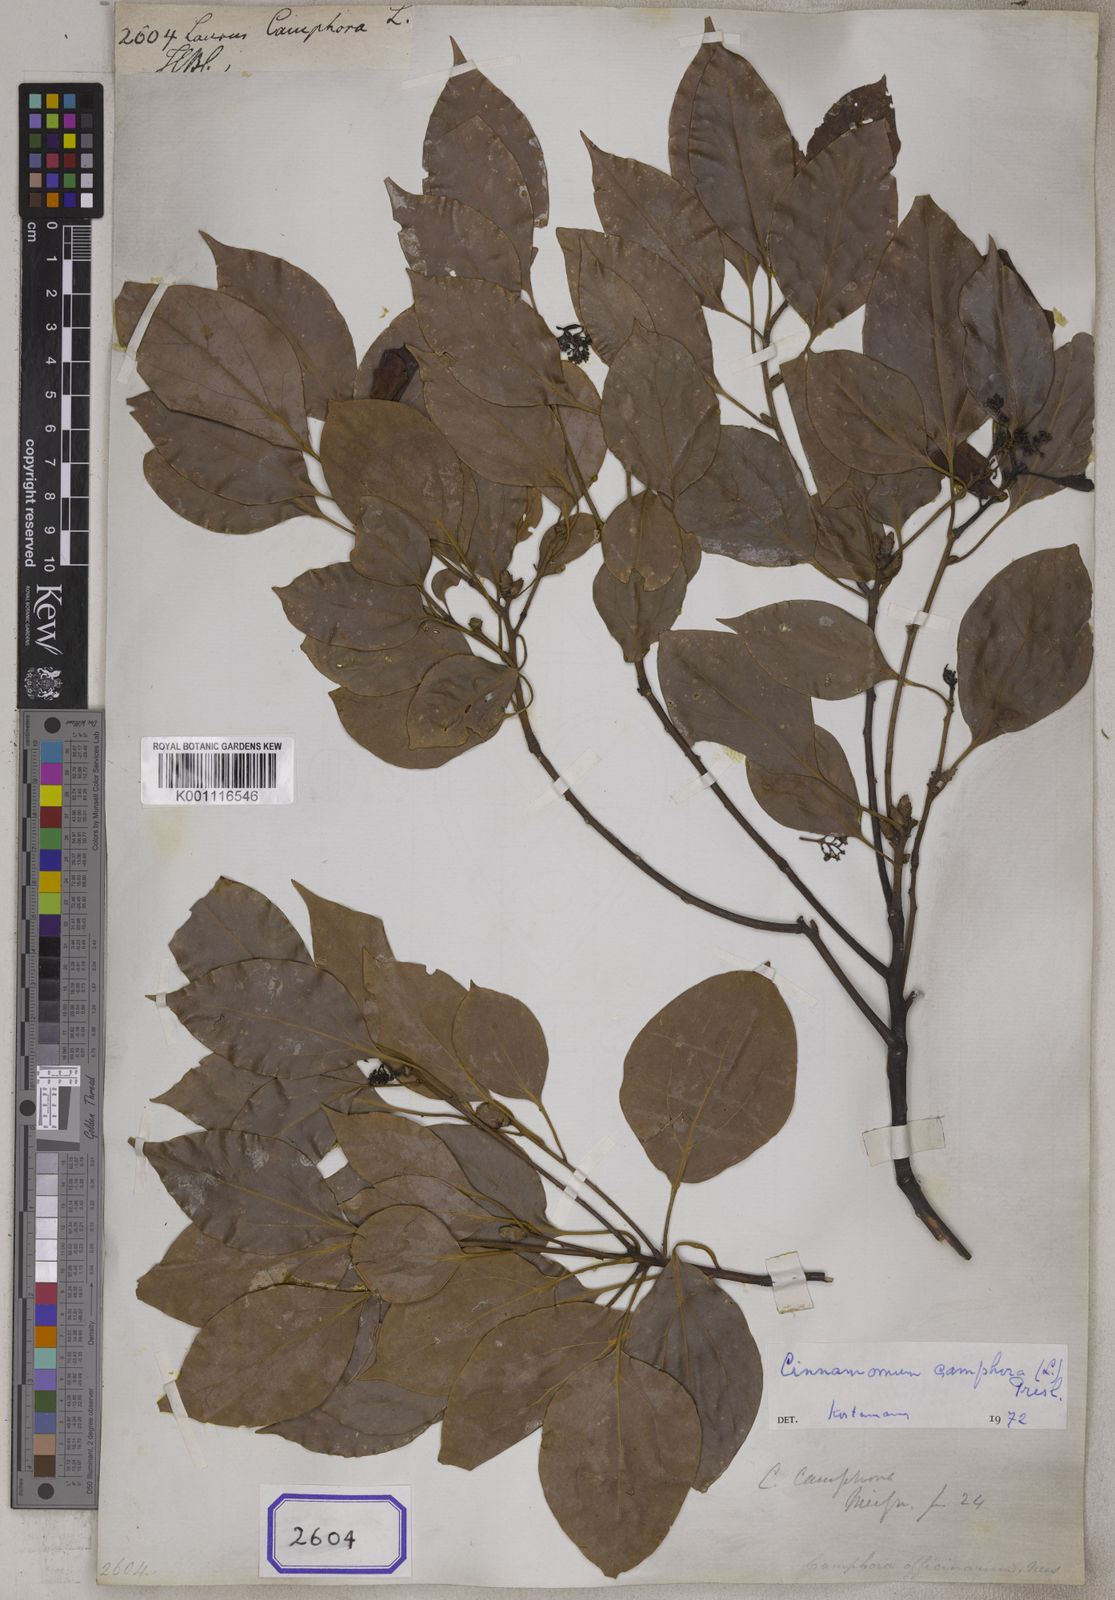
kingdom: Plantae
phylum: Tracheophyta
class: Magnoliopsida
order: Laurales
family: Lauraceae
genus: Cinnamomum
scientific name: Cinnamomum camphora
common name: Camphortree
